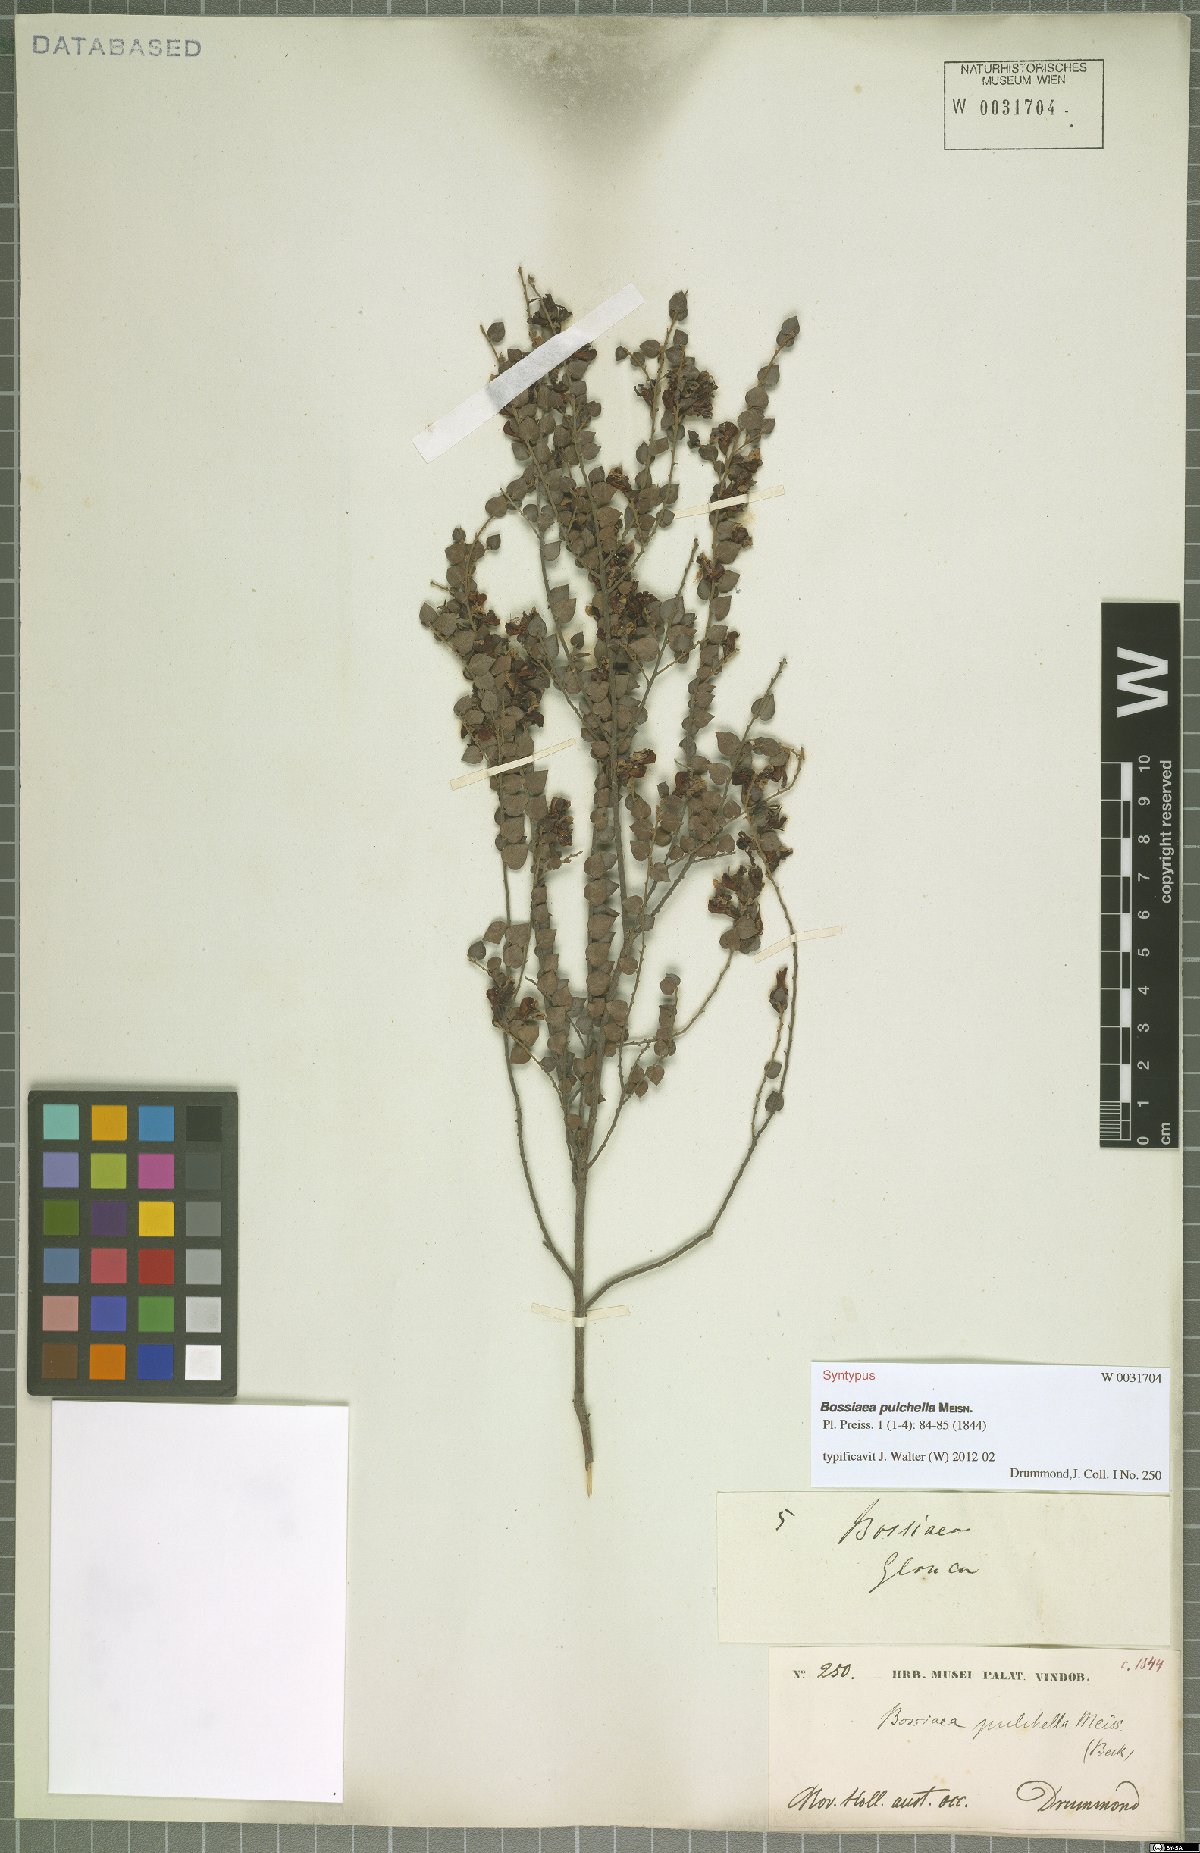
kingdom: Plantae
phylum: Tracheophyta
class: Magnoliopsida
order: Fabales
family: Fabaceae
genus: Bossiaea
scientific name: Bossiaea pulchella
